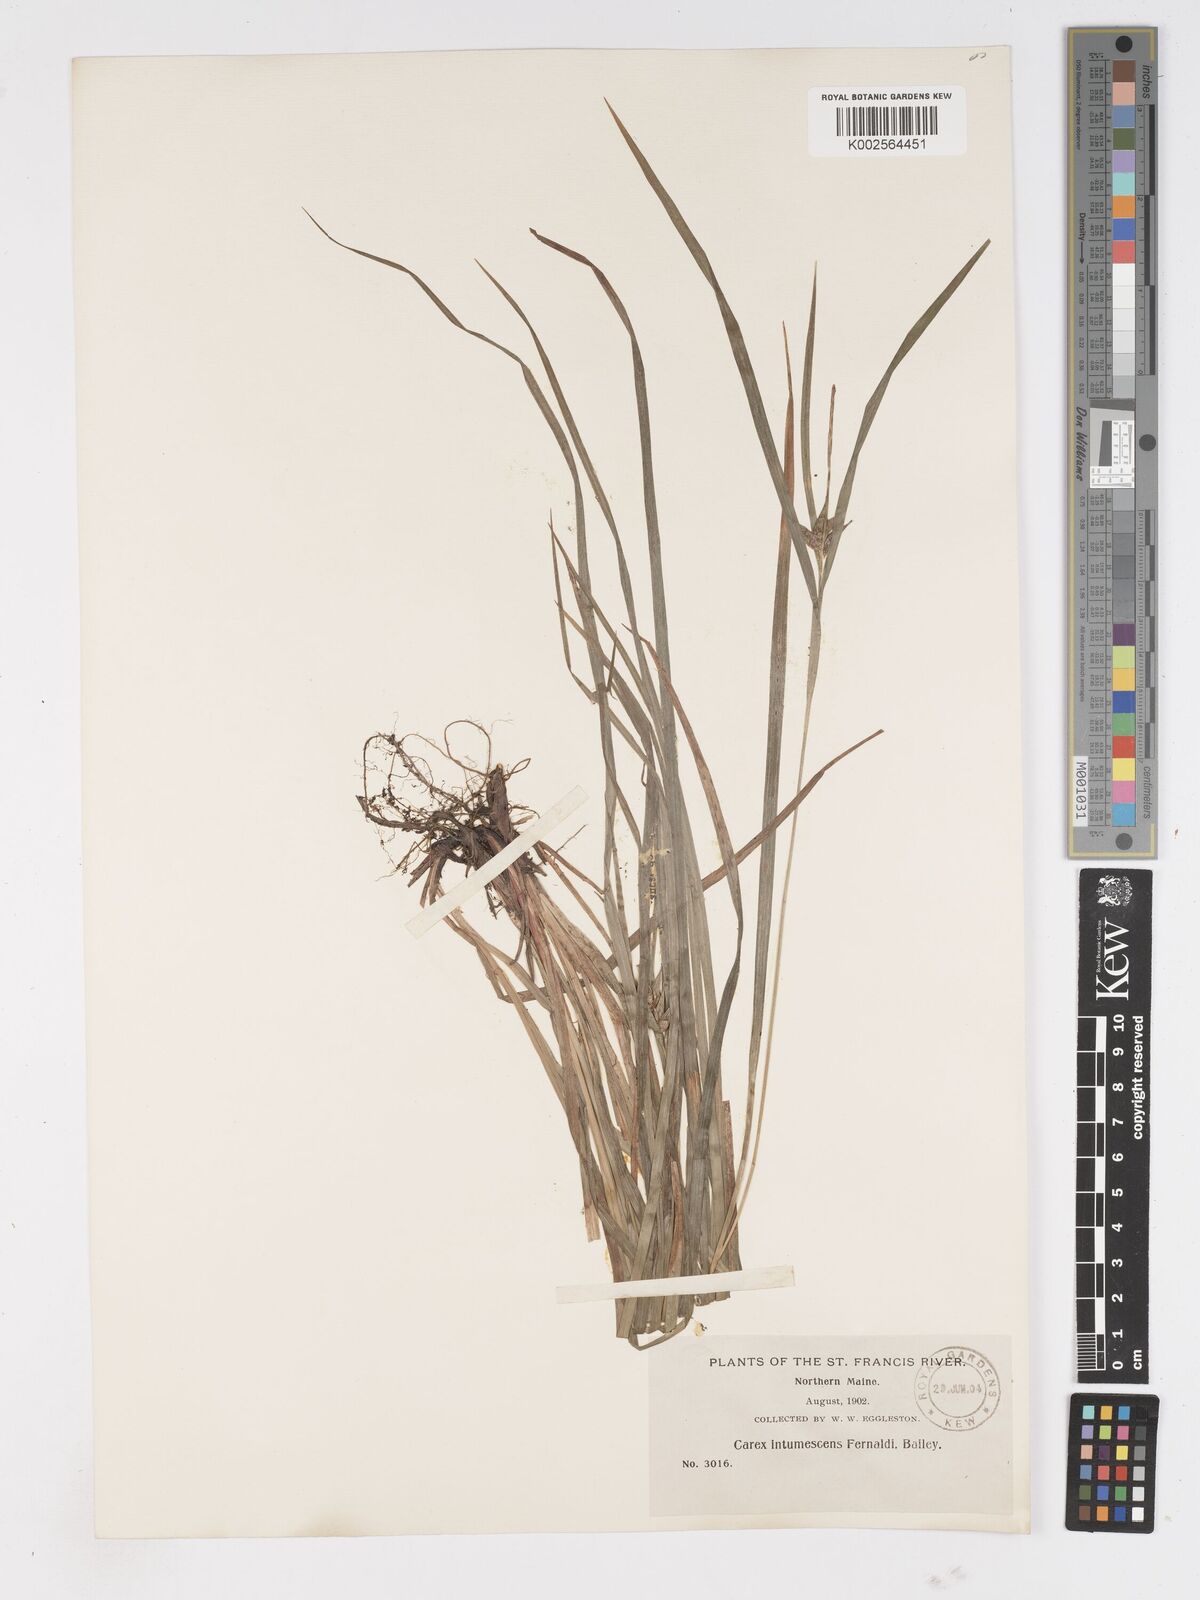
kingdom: Plantae
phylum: Tracheophyta
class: Liliopsida
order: Poales
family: Cyperaceae
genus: Carex
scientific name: Carex intumescens
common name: Greater bladder sedge
